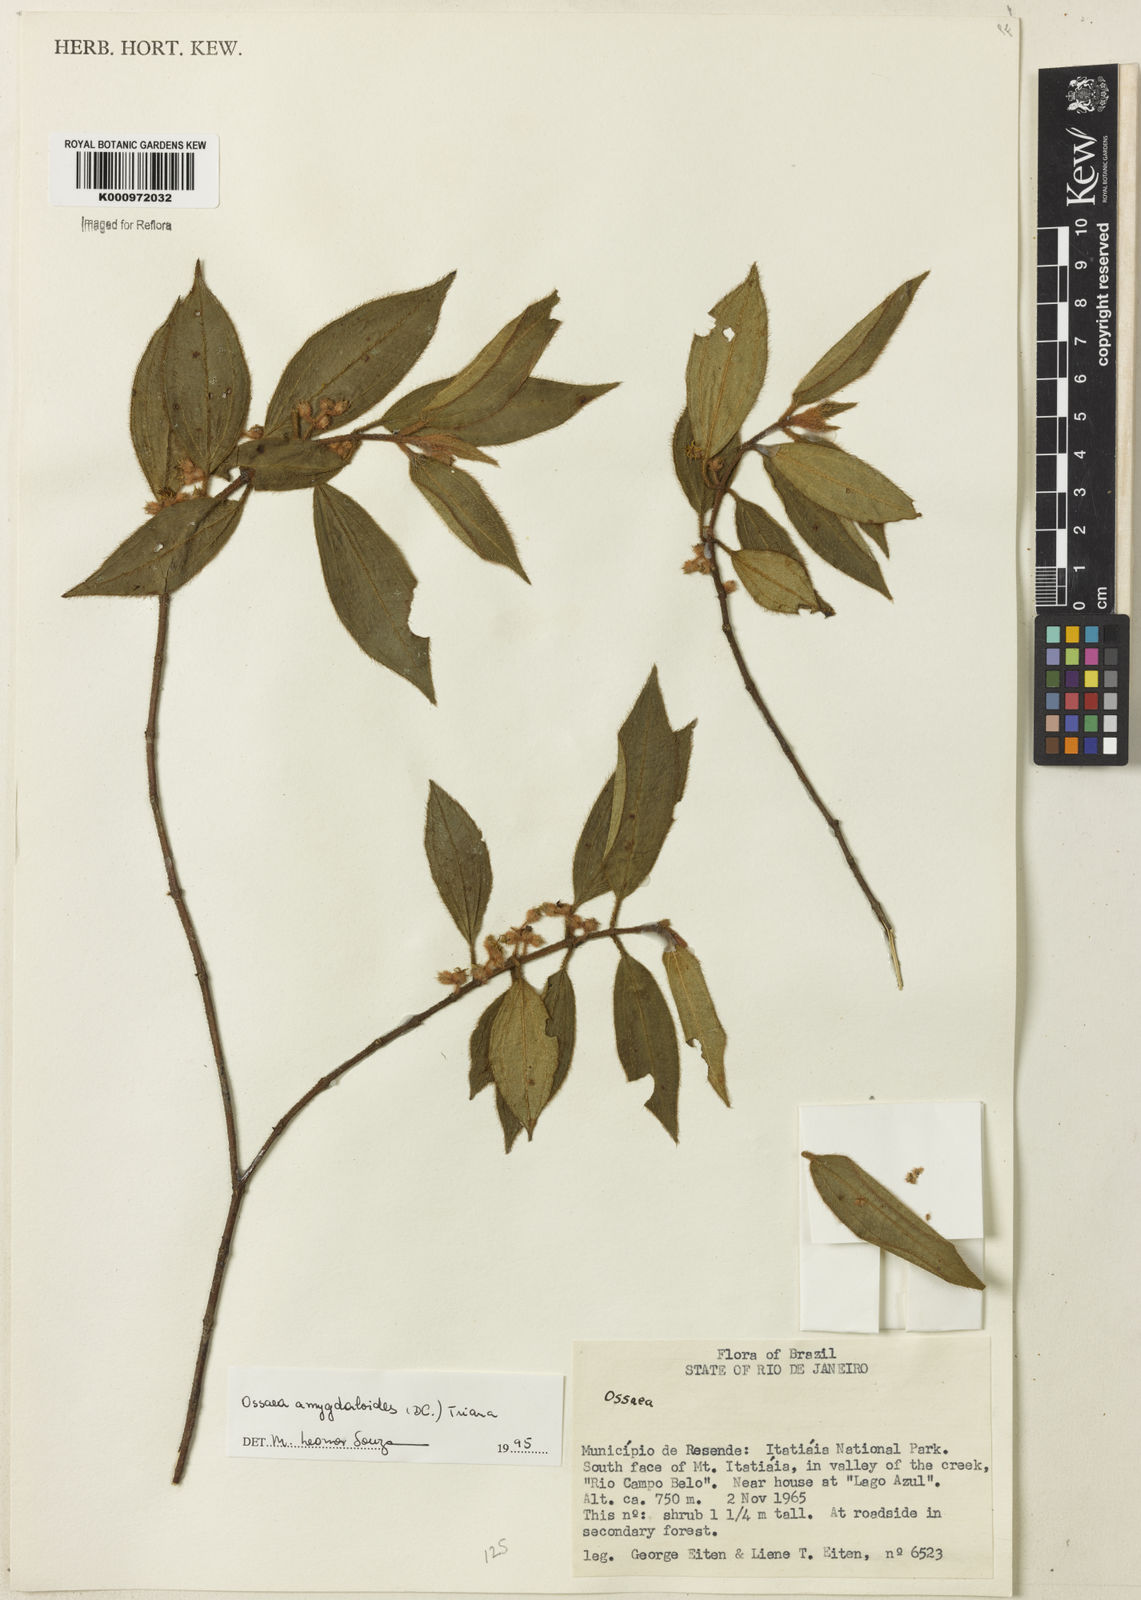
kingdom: Plantae
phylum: Tracheophyta
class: Magnoliopsida
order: Myrtales
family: Melastomataceae
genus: Miconia
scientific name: Miconia amygdaloides
